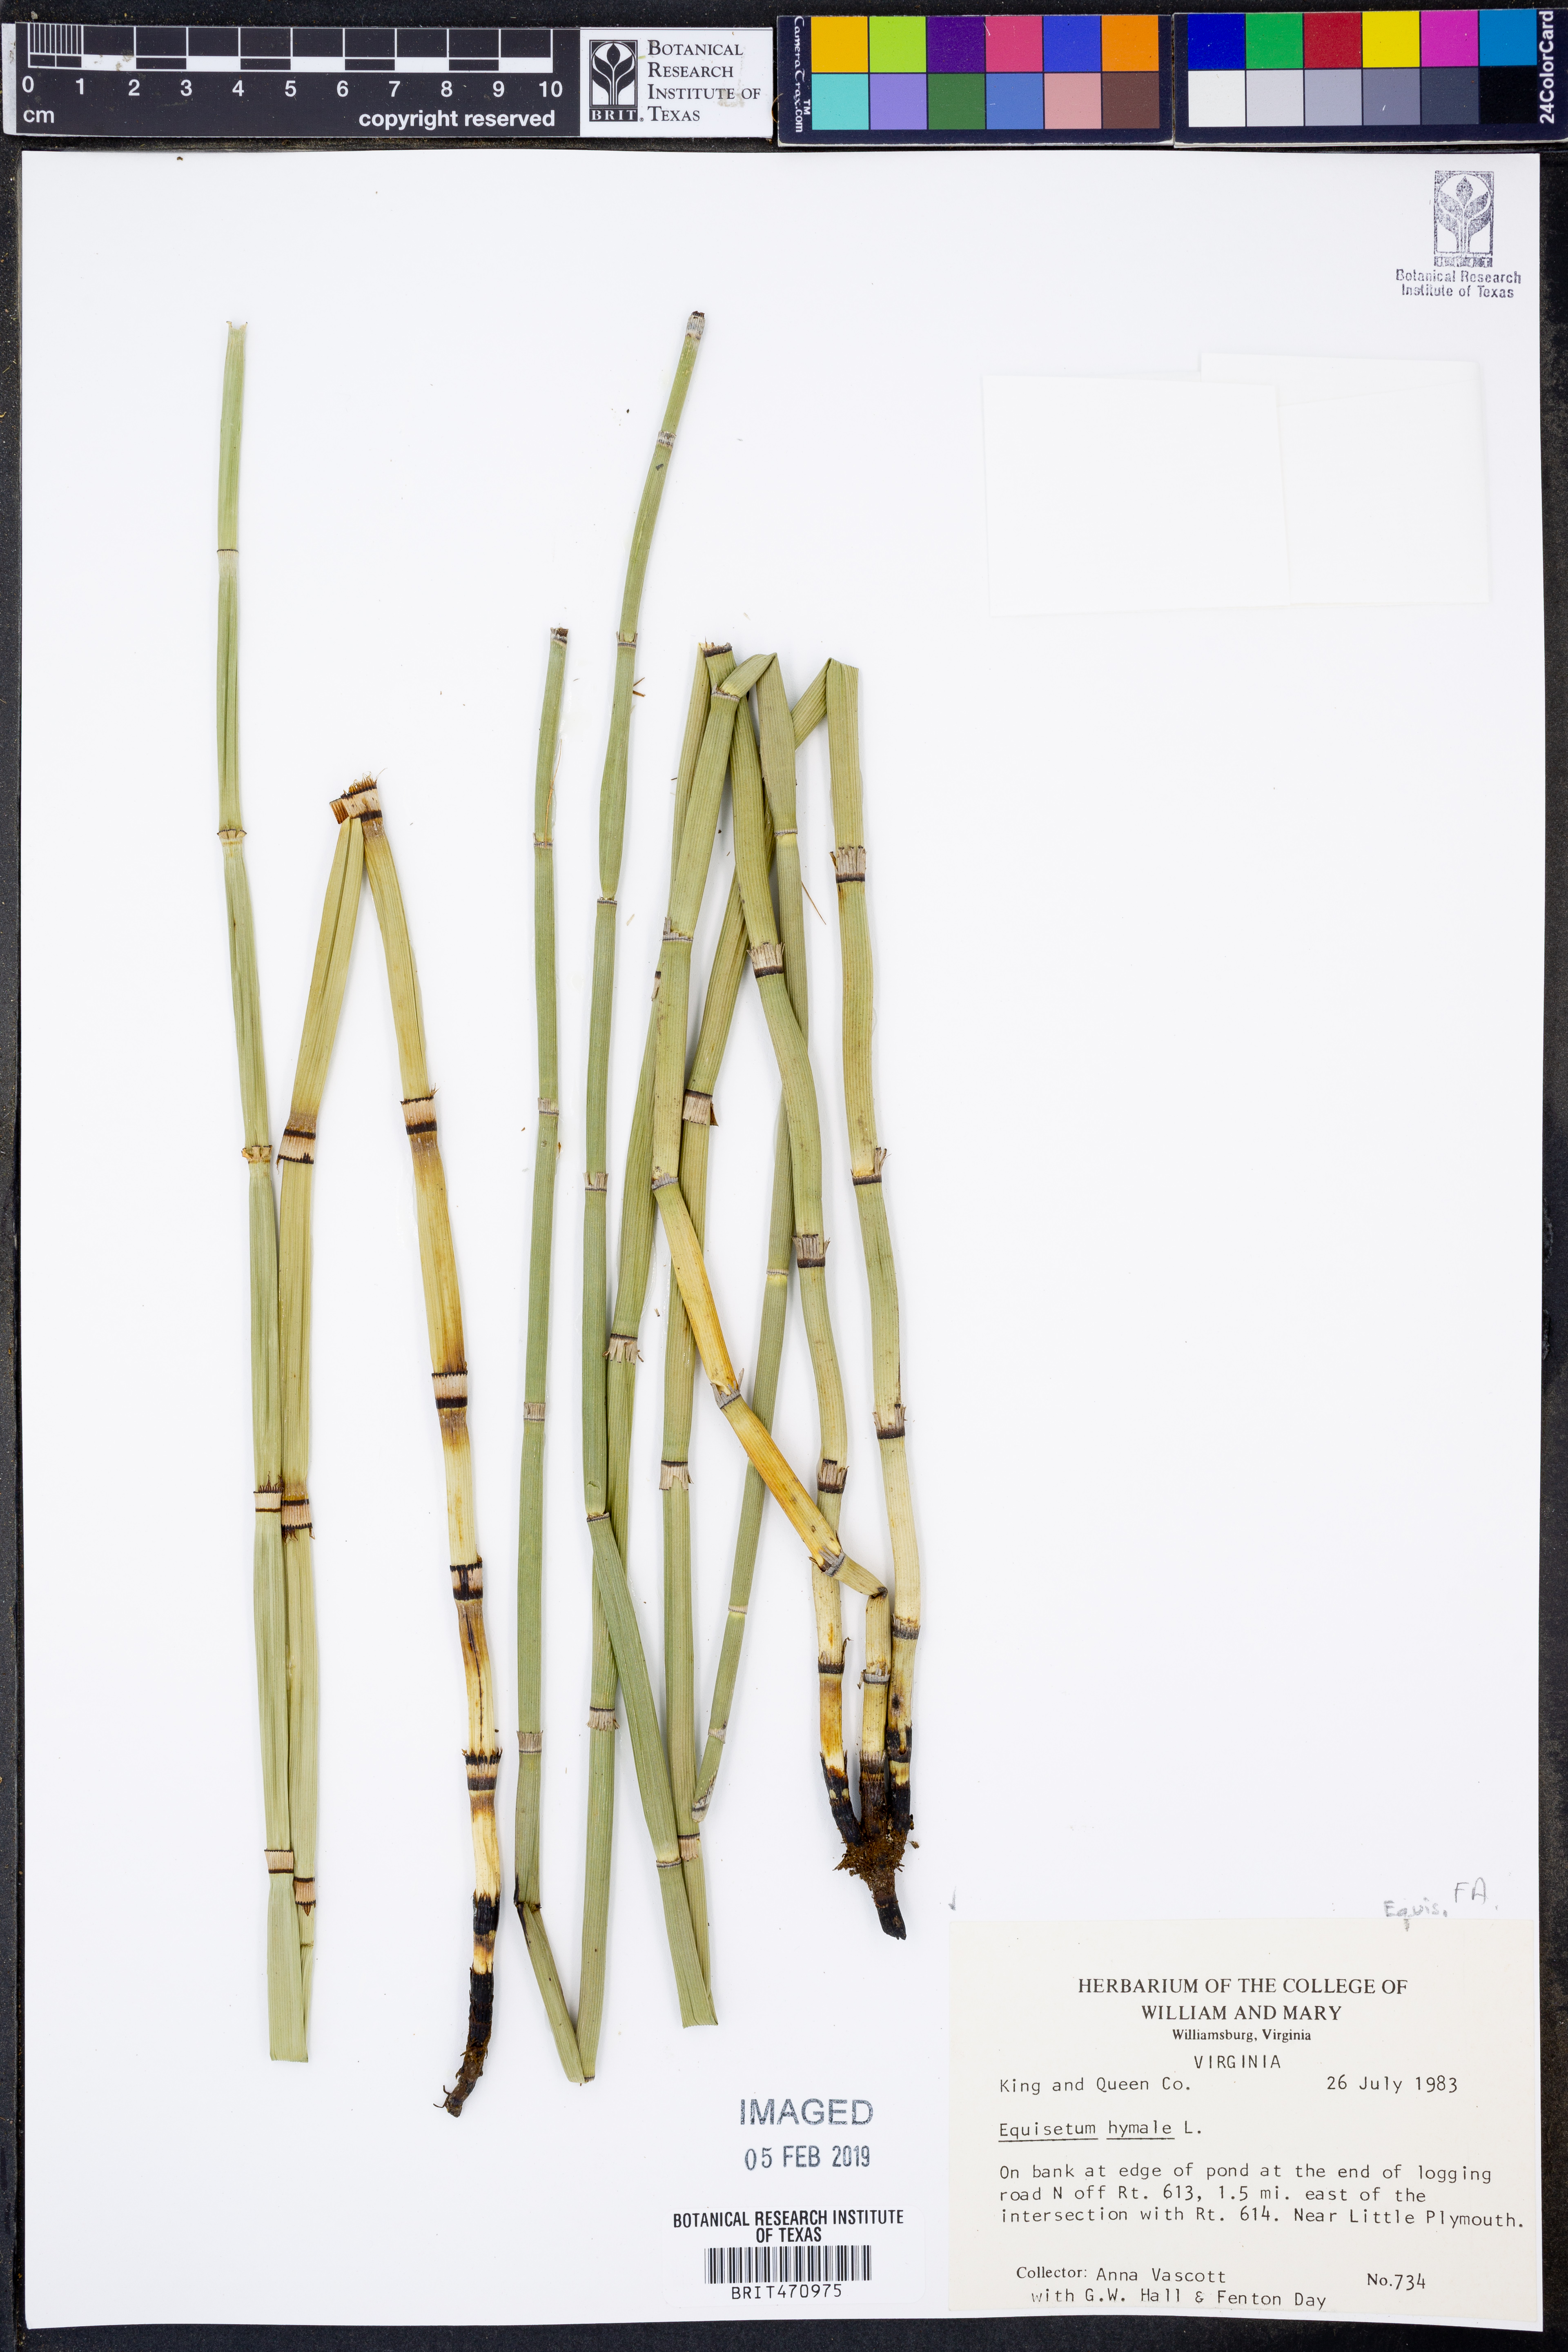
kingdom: Plantae
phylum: Tracheophyta
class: Polypodiopsida
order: Equisetales
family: Equisetaceae
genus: Equisetum
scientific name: Equisetum hyemale
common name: Rough horsetail
